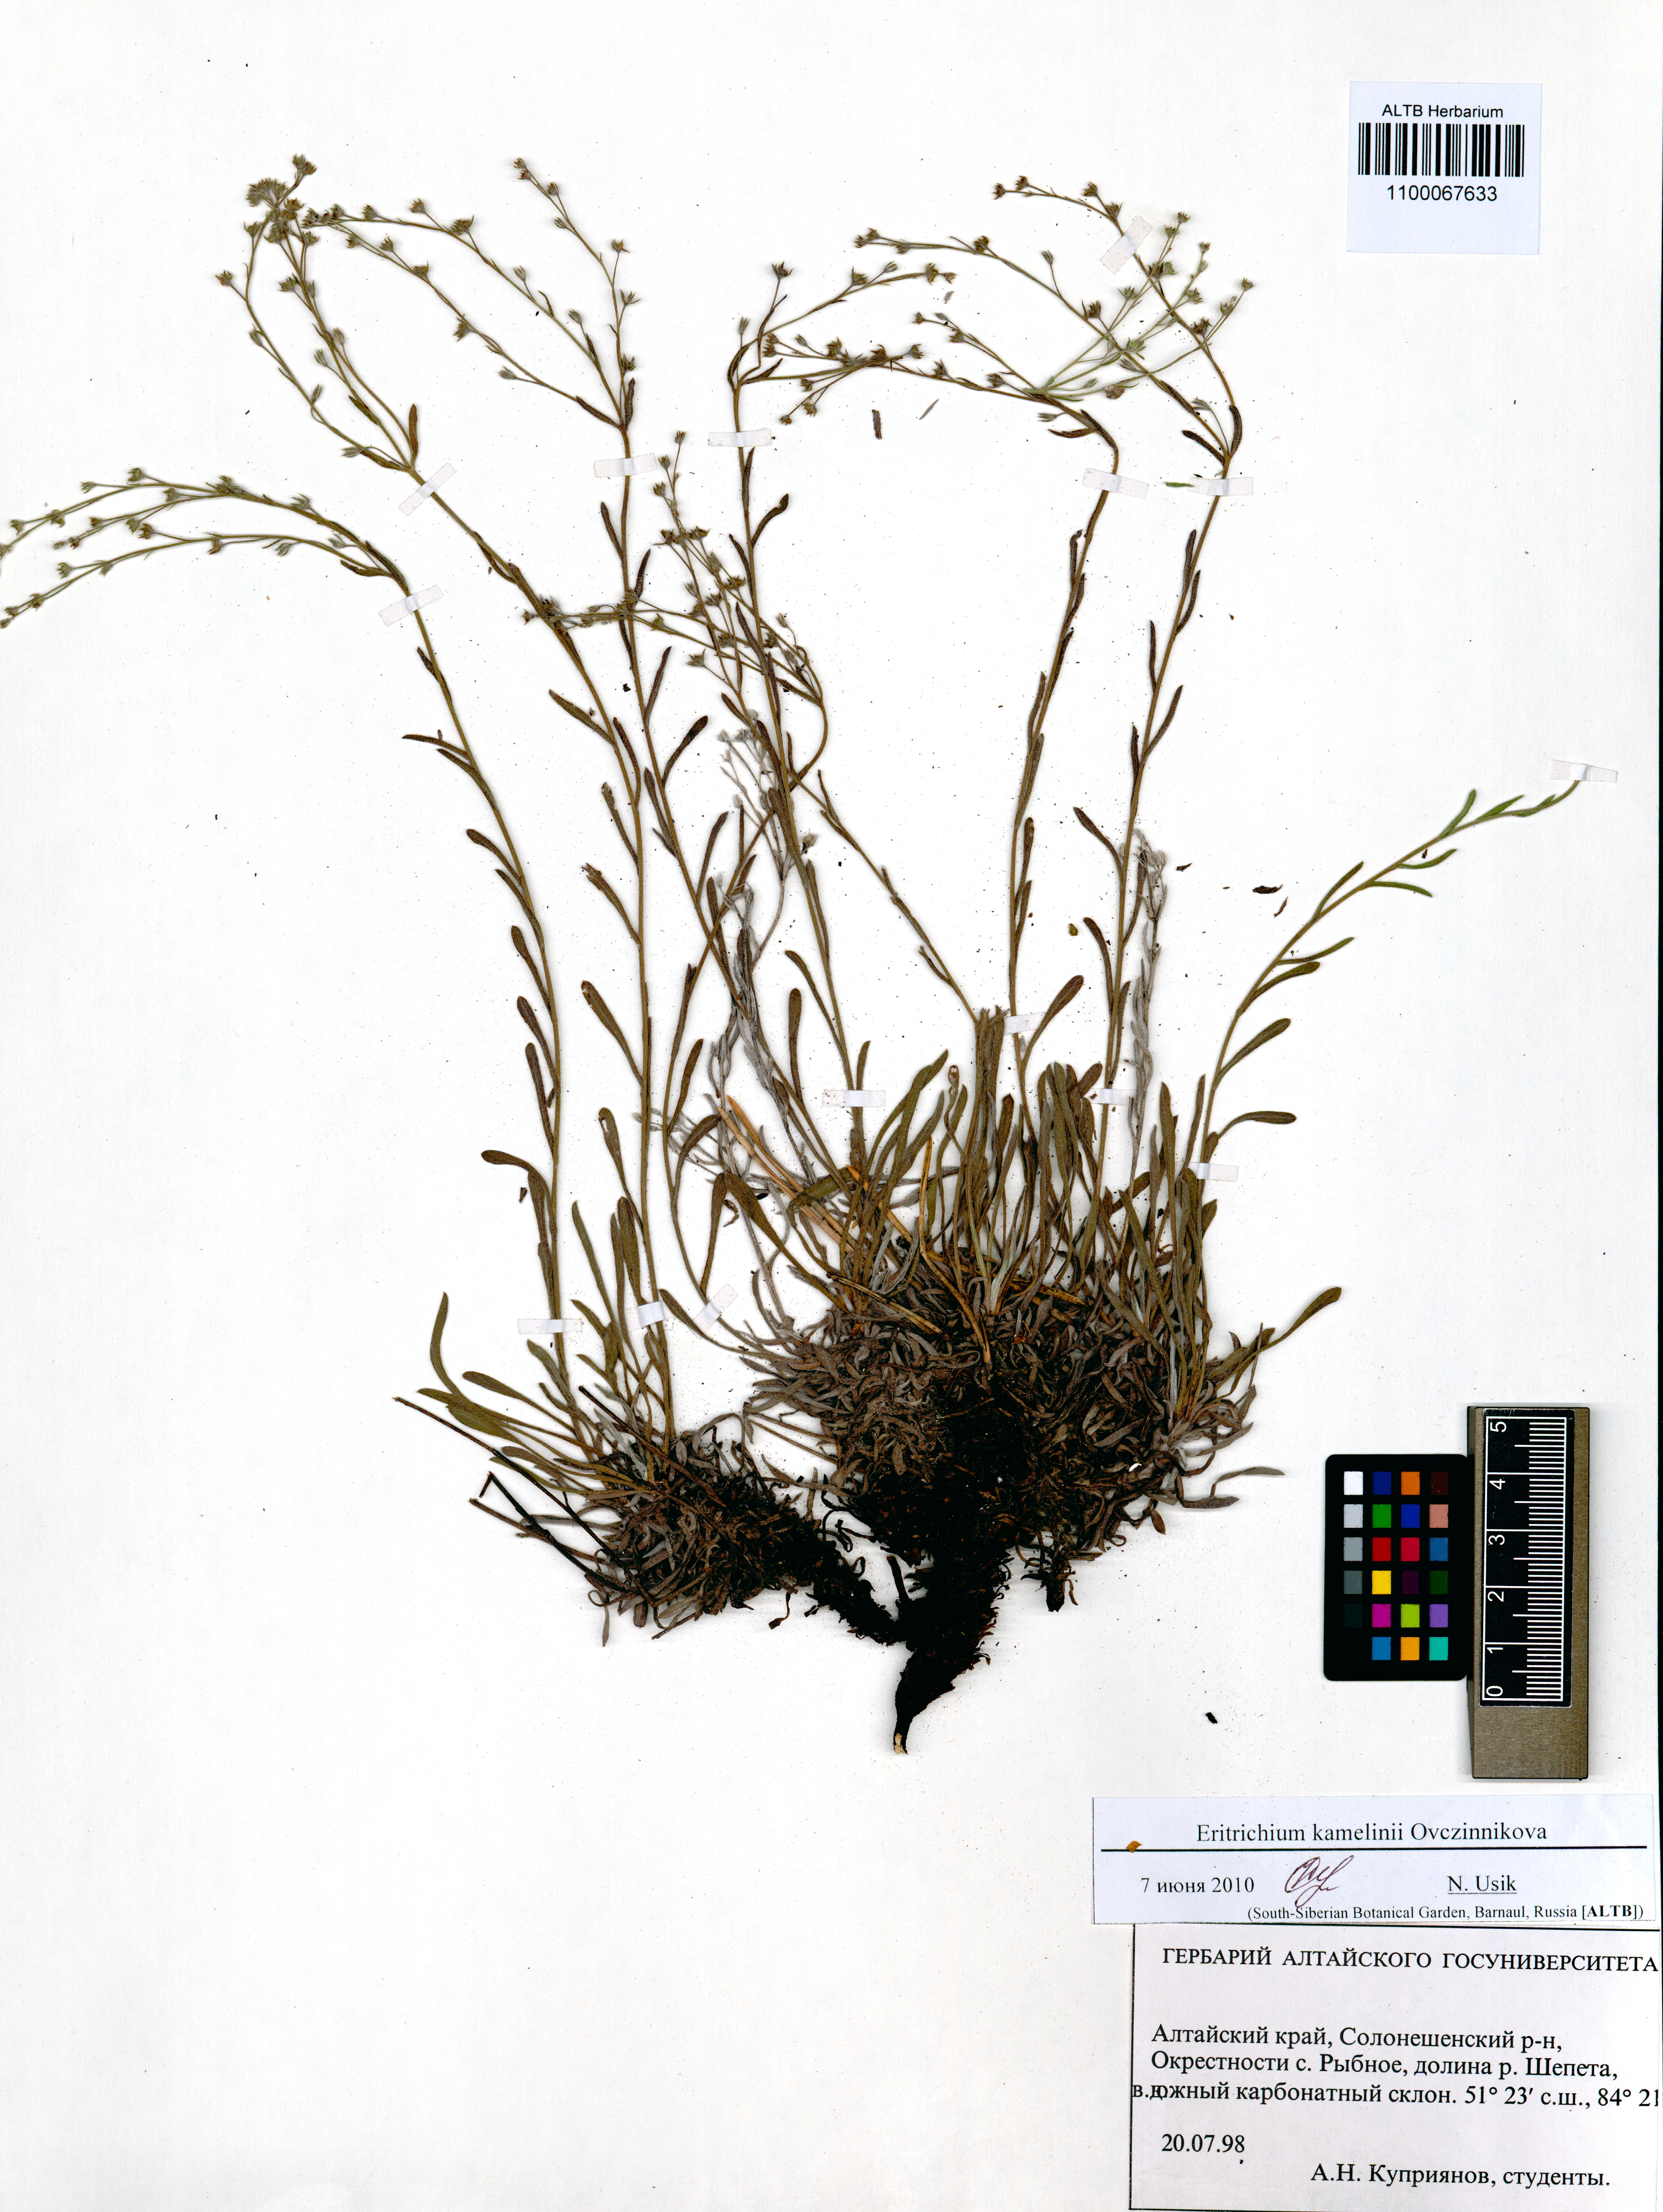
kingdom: Plantae
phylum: Tracheophyta
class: Magnoliopsida
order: Boraginales
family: Boraginaceae
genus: Eritrichium
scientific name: Eritrichium kamelinii
